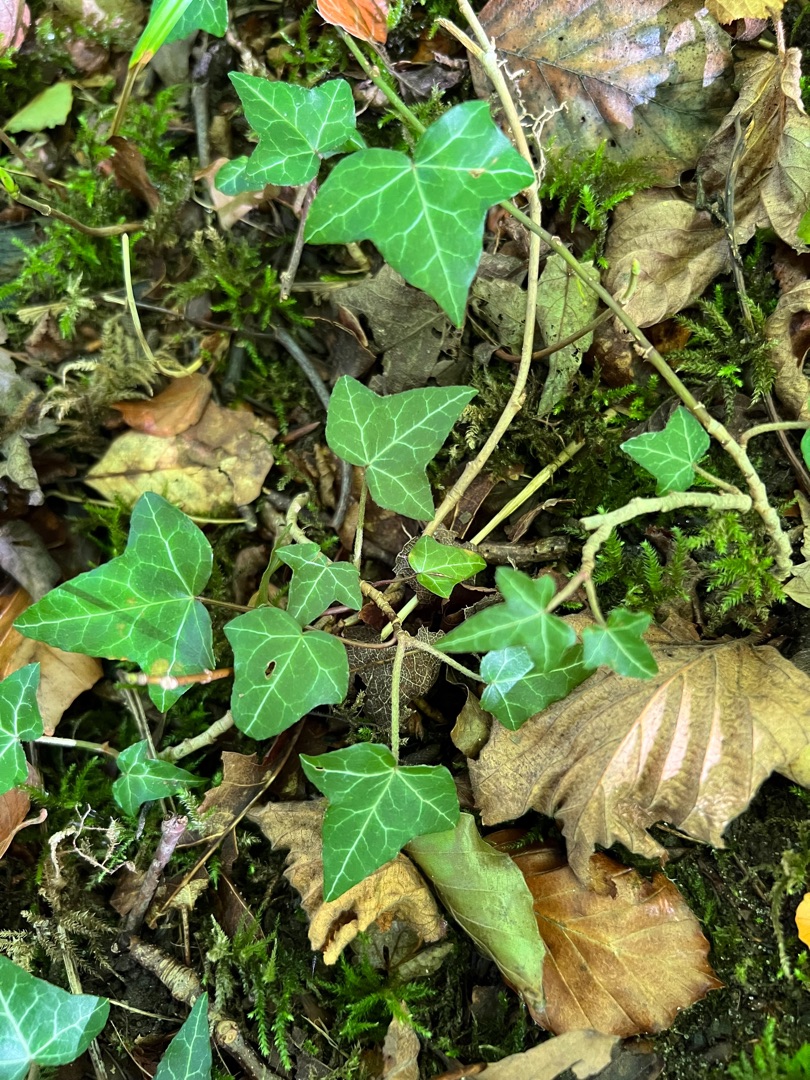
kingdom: Plantae
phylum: Tracheophyta
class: Magnoliopsida
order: Apiales
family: Araliaceae
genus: Hedera
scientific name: Hedera helix
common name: Vedbend
